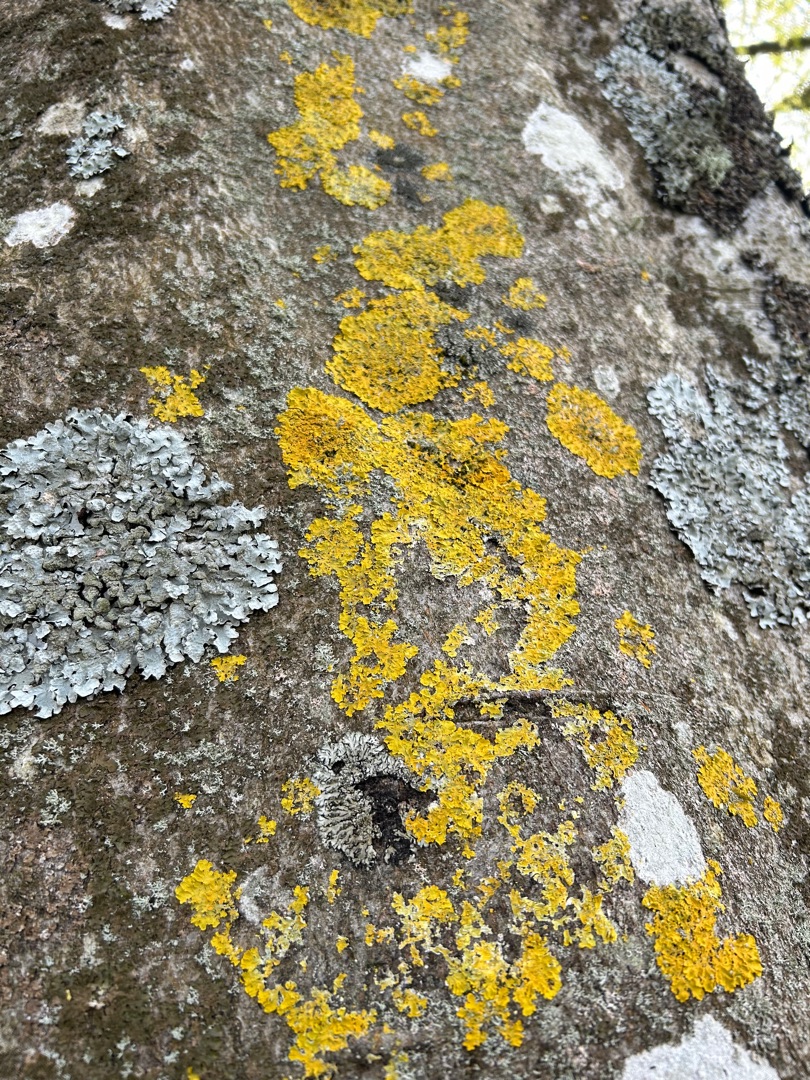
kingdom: Fungi
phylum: Ascomycota
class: Lecanoromycetes
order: Teloschistales
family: Teloschistaceae
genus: Xanthoria
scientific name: Xanthoria parietina
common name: Almindelig væggelav
